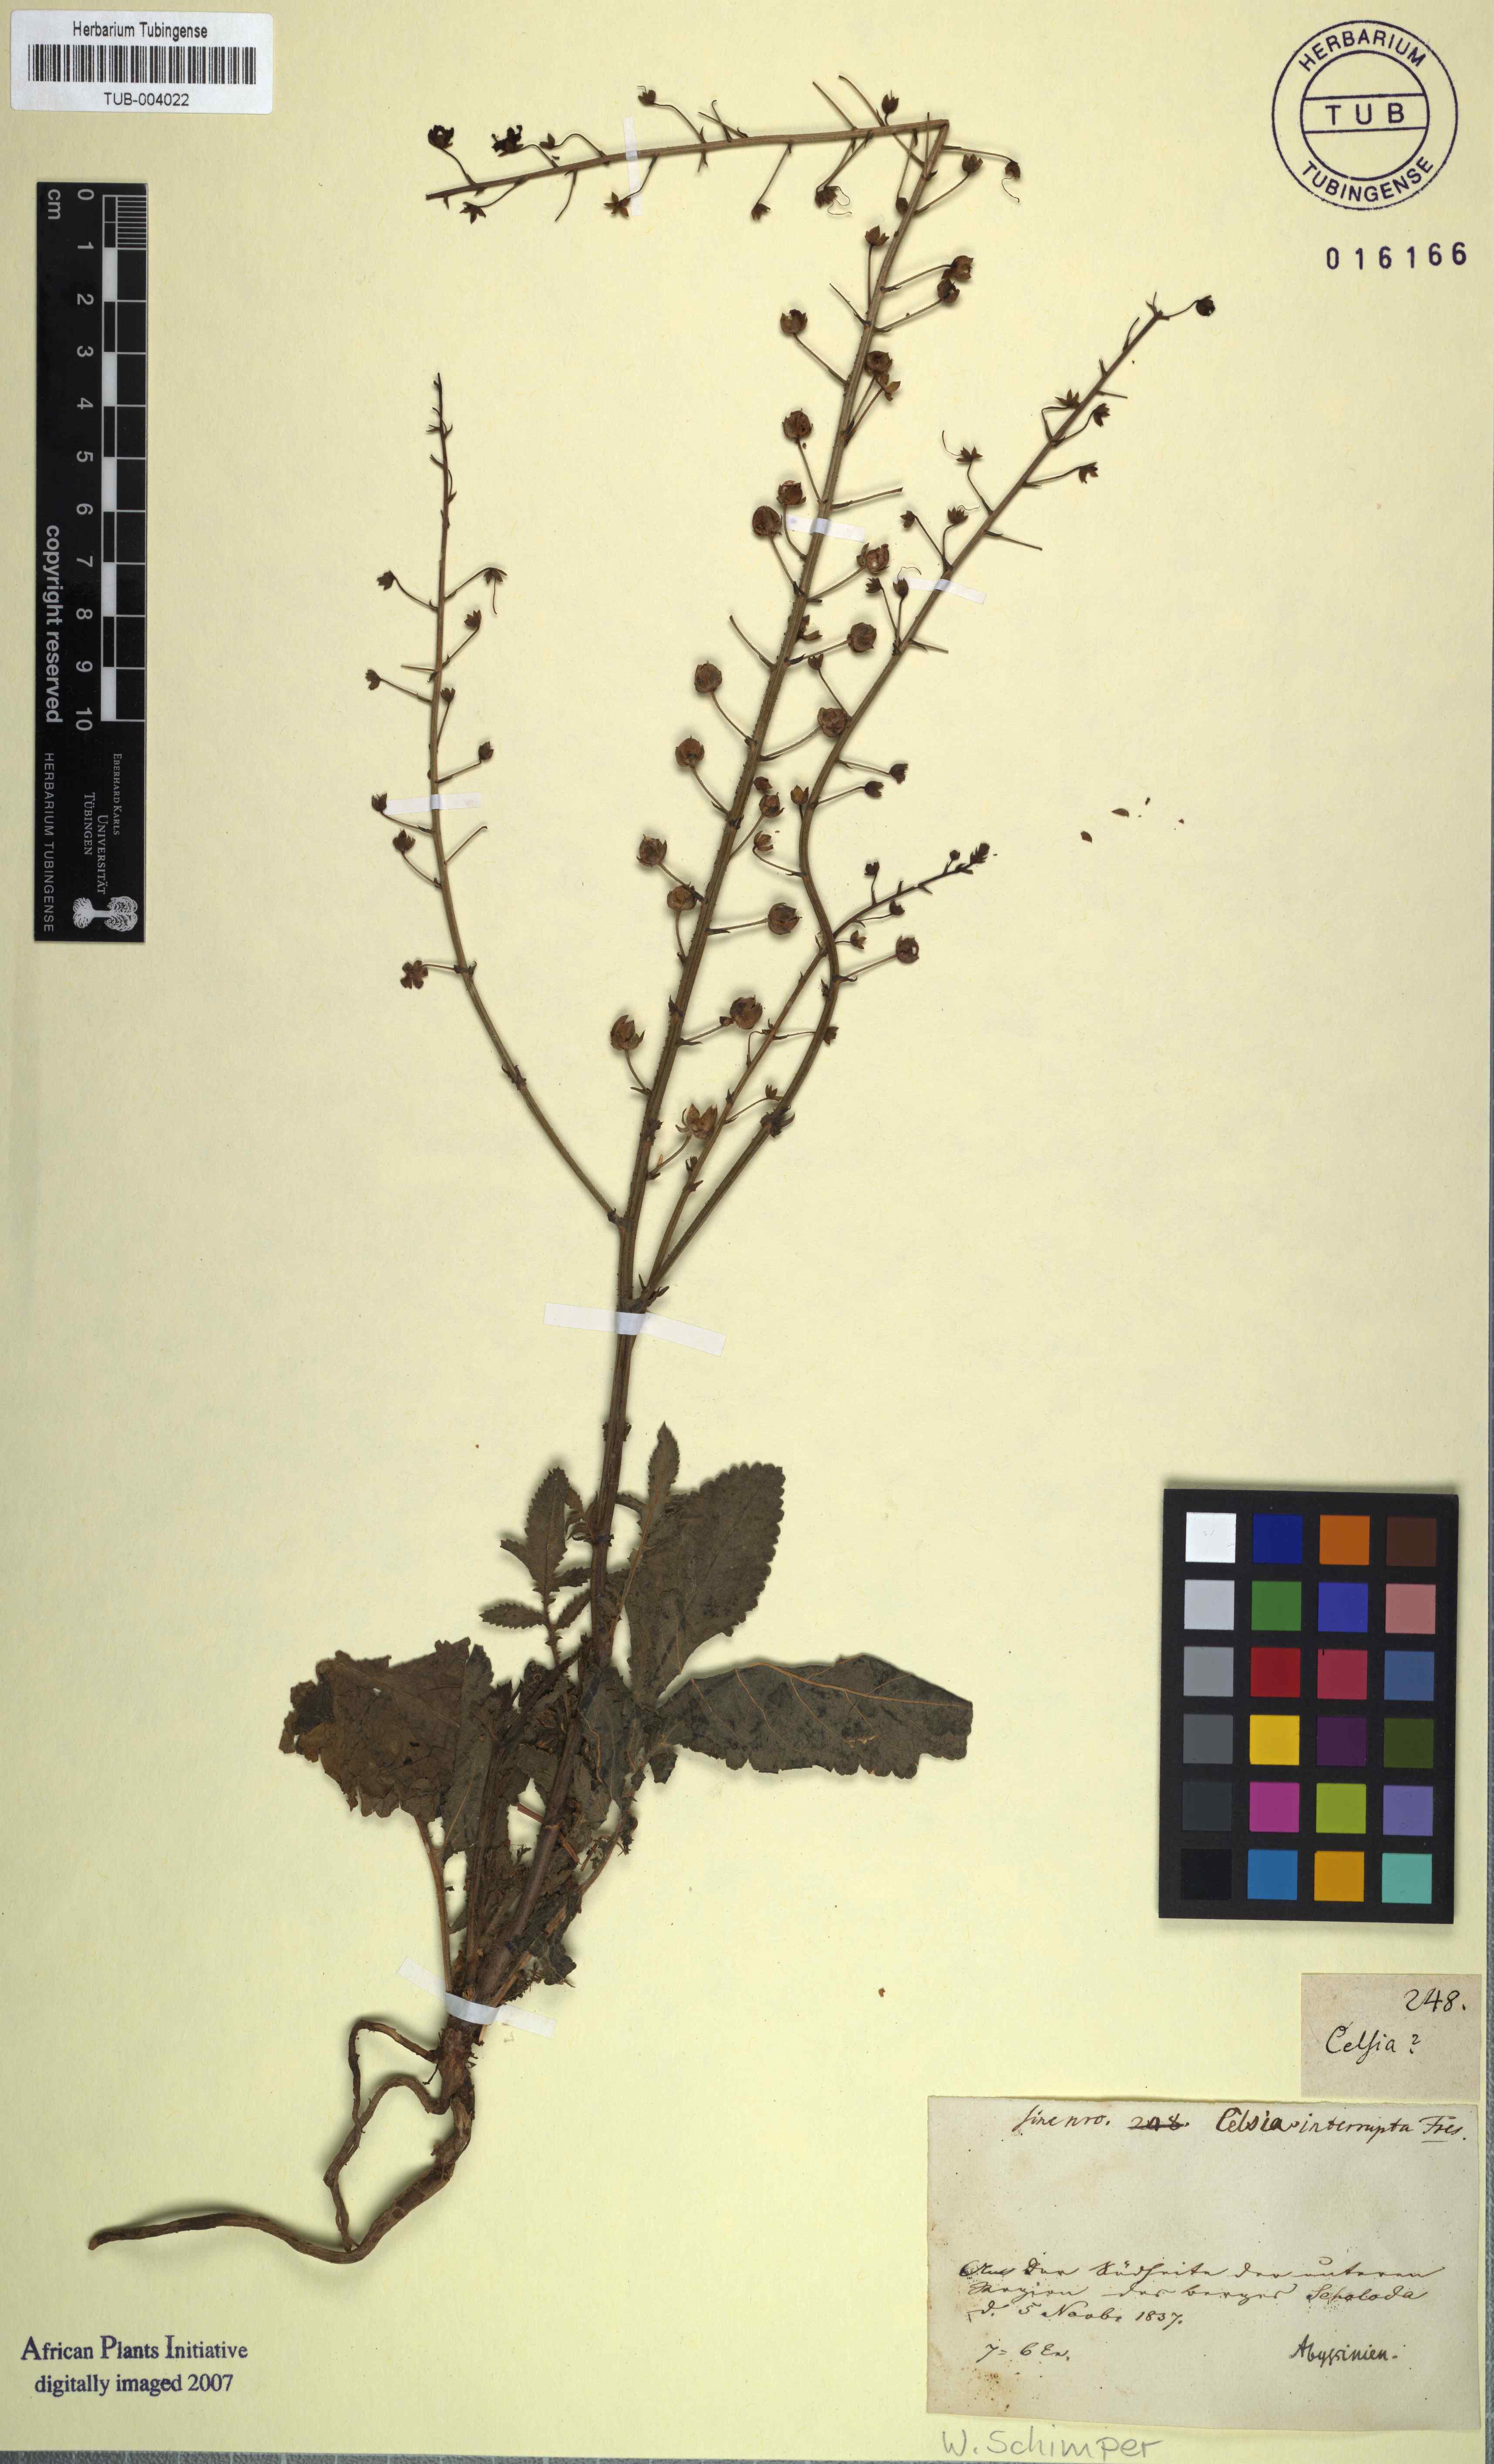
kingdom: Plantae
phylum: Tracheophyta
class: Magnoliopsida
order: Lamiales
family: Scrophulariaceae
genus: Verbascum
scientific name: Verbascum interruptum
